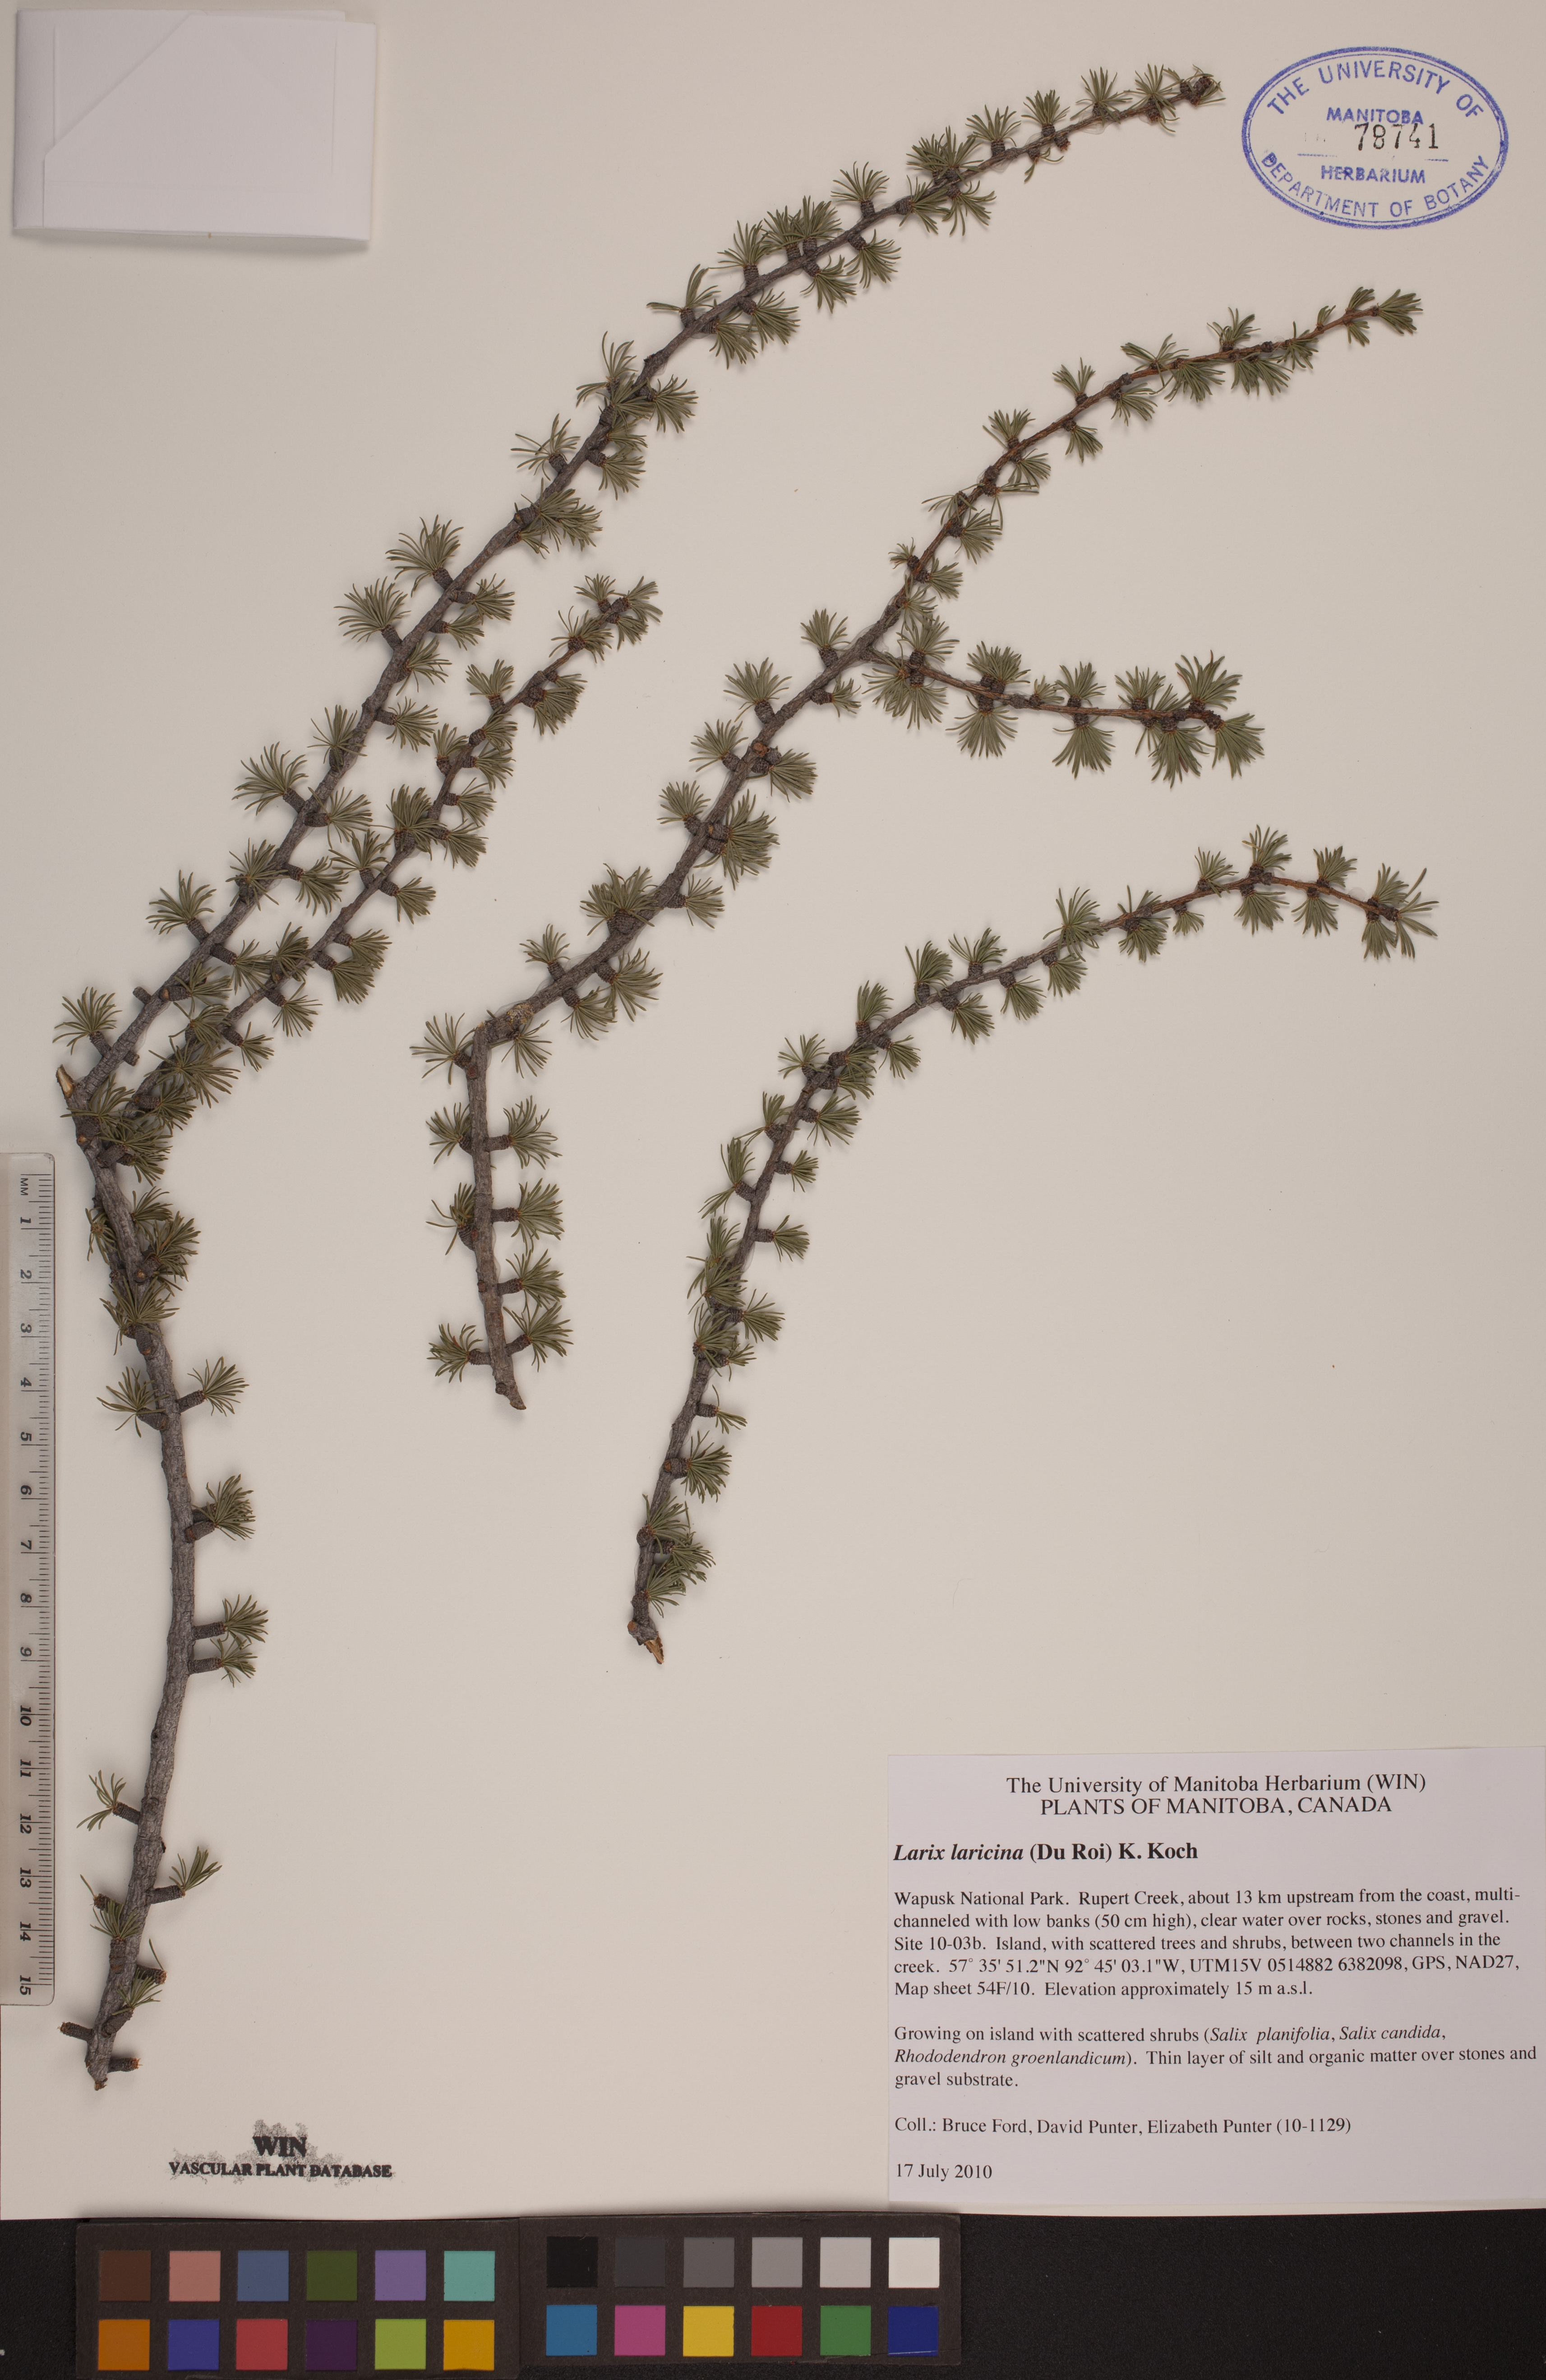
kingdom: Plantae
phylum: Tracheophyta
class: Pinopsida
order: Pinales
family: Pinaceae
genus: Larix
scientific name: Larix laricina
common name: American larch
